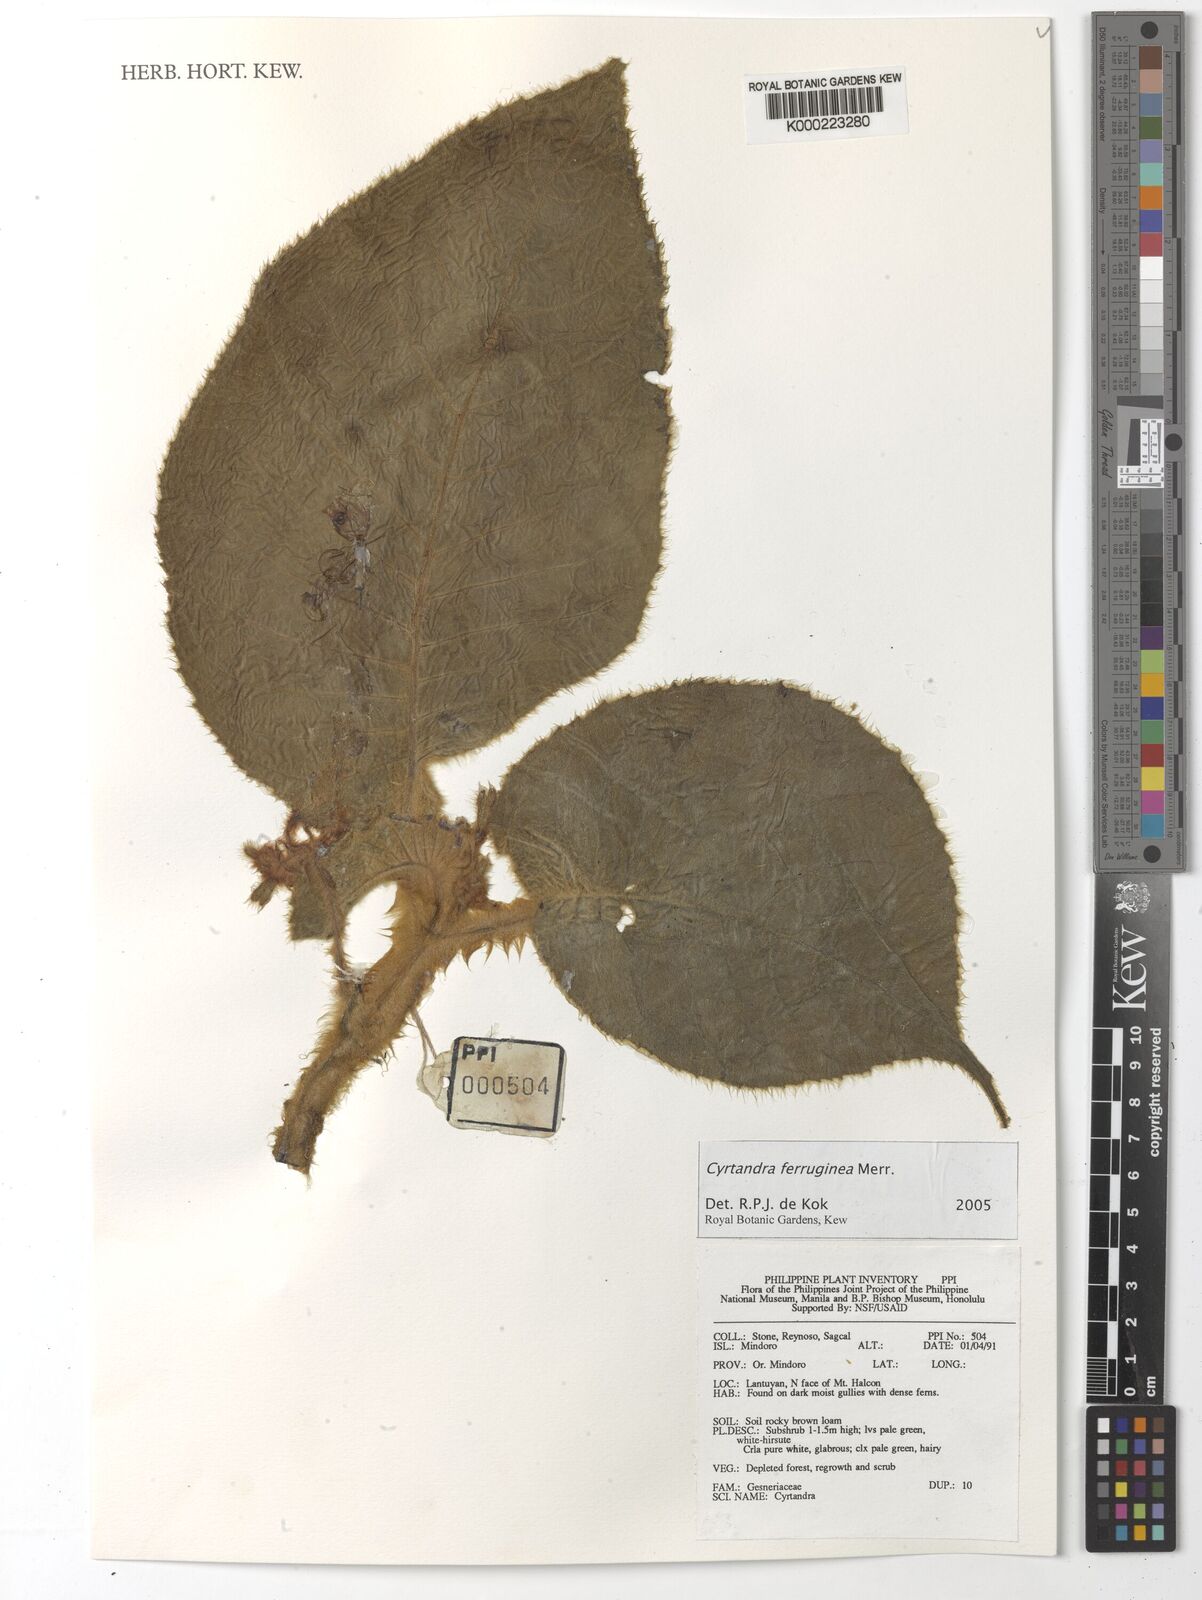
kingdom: Plantae
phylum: Tracheophyta
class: Magnoliopsida
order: Lamiales
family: Gesneriaceae
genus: Cyrtandra
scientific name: Cyrtandra ferruginea
